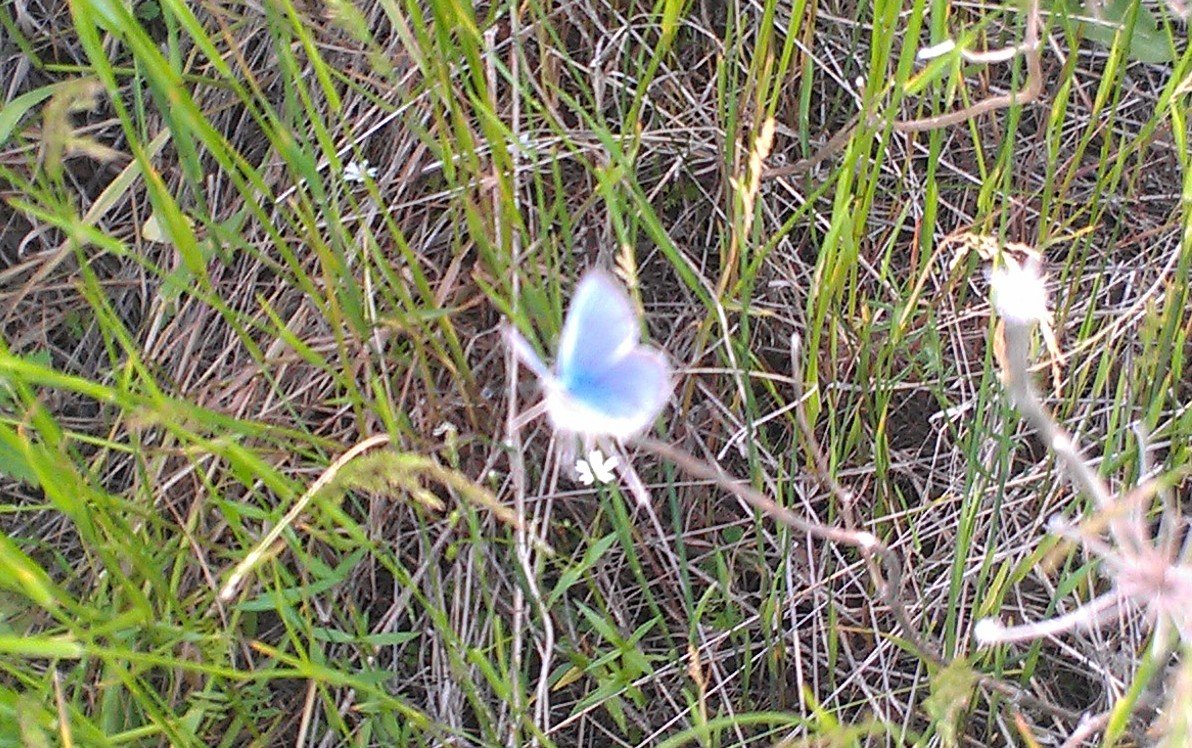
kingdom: Animalia
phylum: Arthropoda
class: Insecta
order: Lepidoptera
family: Lycaenidae
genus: Glaucopsyche
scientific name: Glaucopsyche lygdamus
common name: Silvery Blue
